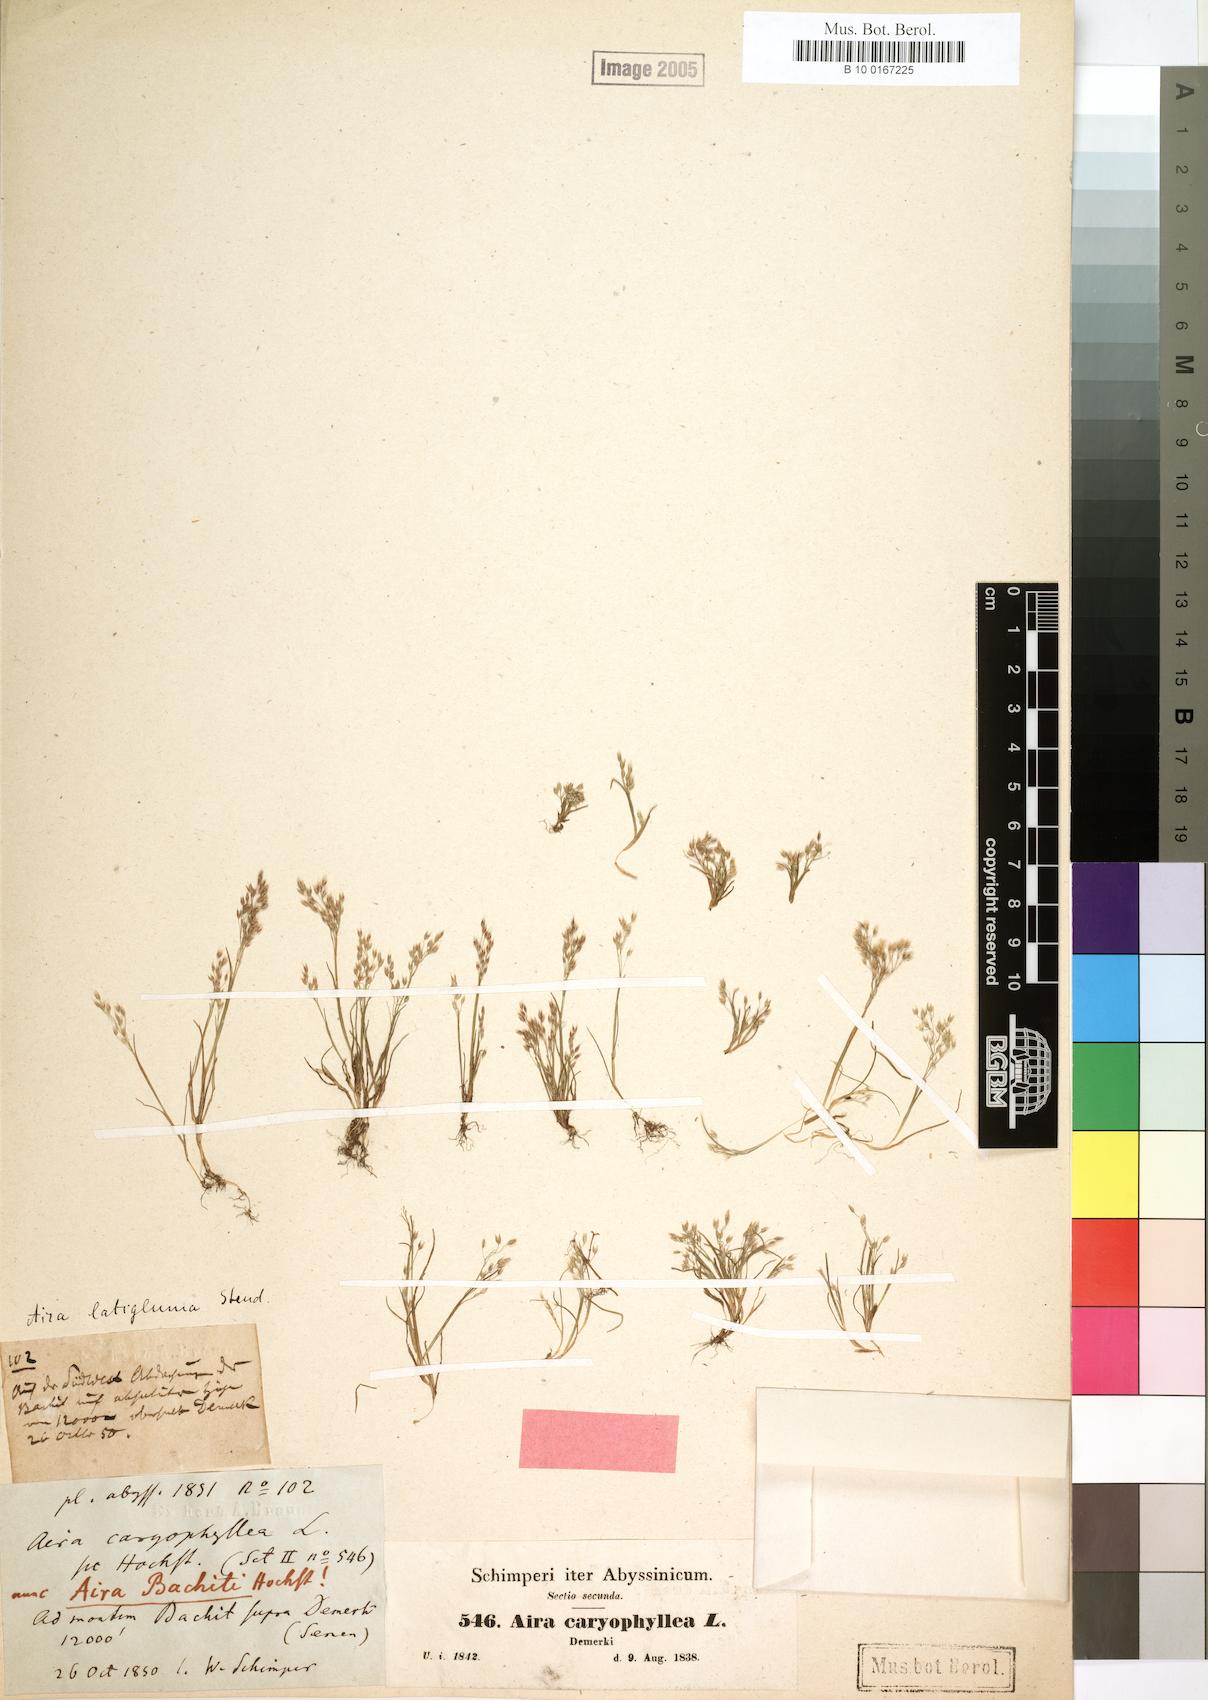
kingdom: Plantae
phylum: Tracheophyta
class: Liliopsida
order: Poales
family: Poaceae
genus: Aira
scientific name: Aira caryophyllea
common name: Silver hairgrass
